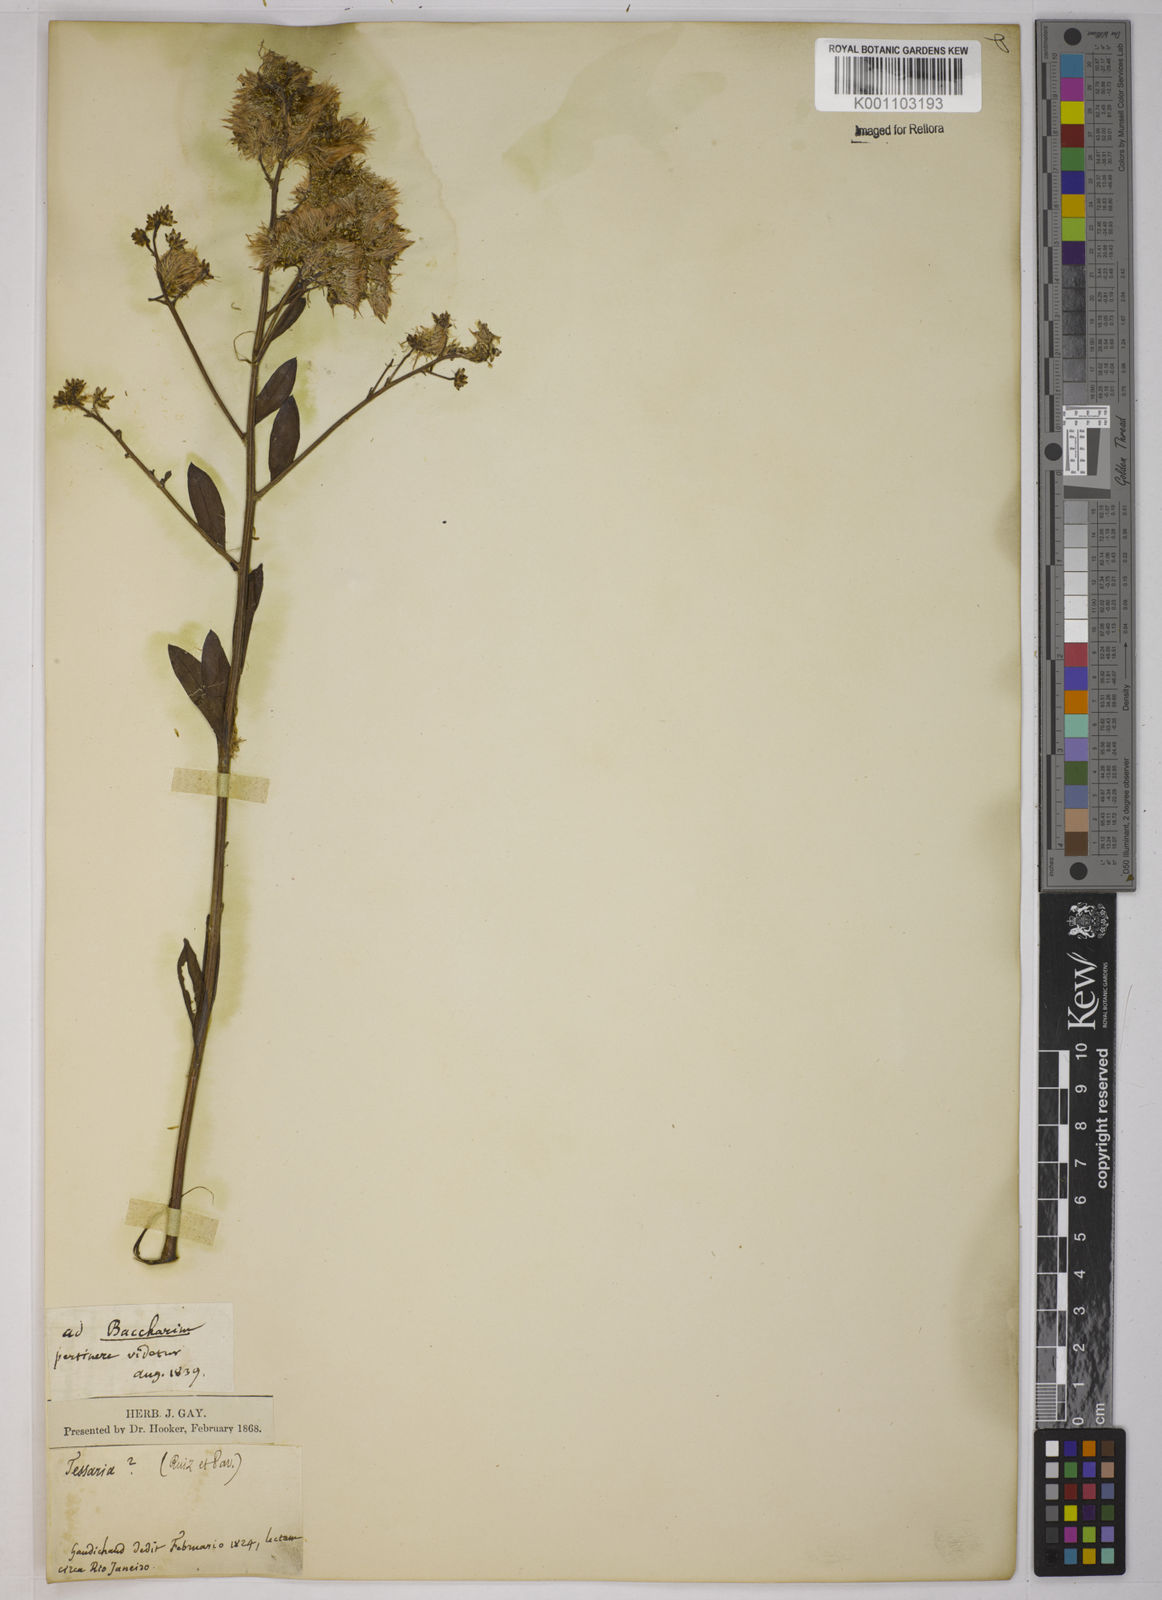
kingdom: Plantae
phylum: Tracheophyta
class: Magnoliopsida
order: Asterales
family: Asteraceae
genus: Baccharis
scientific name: Baccharis trinervis
